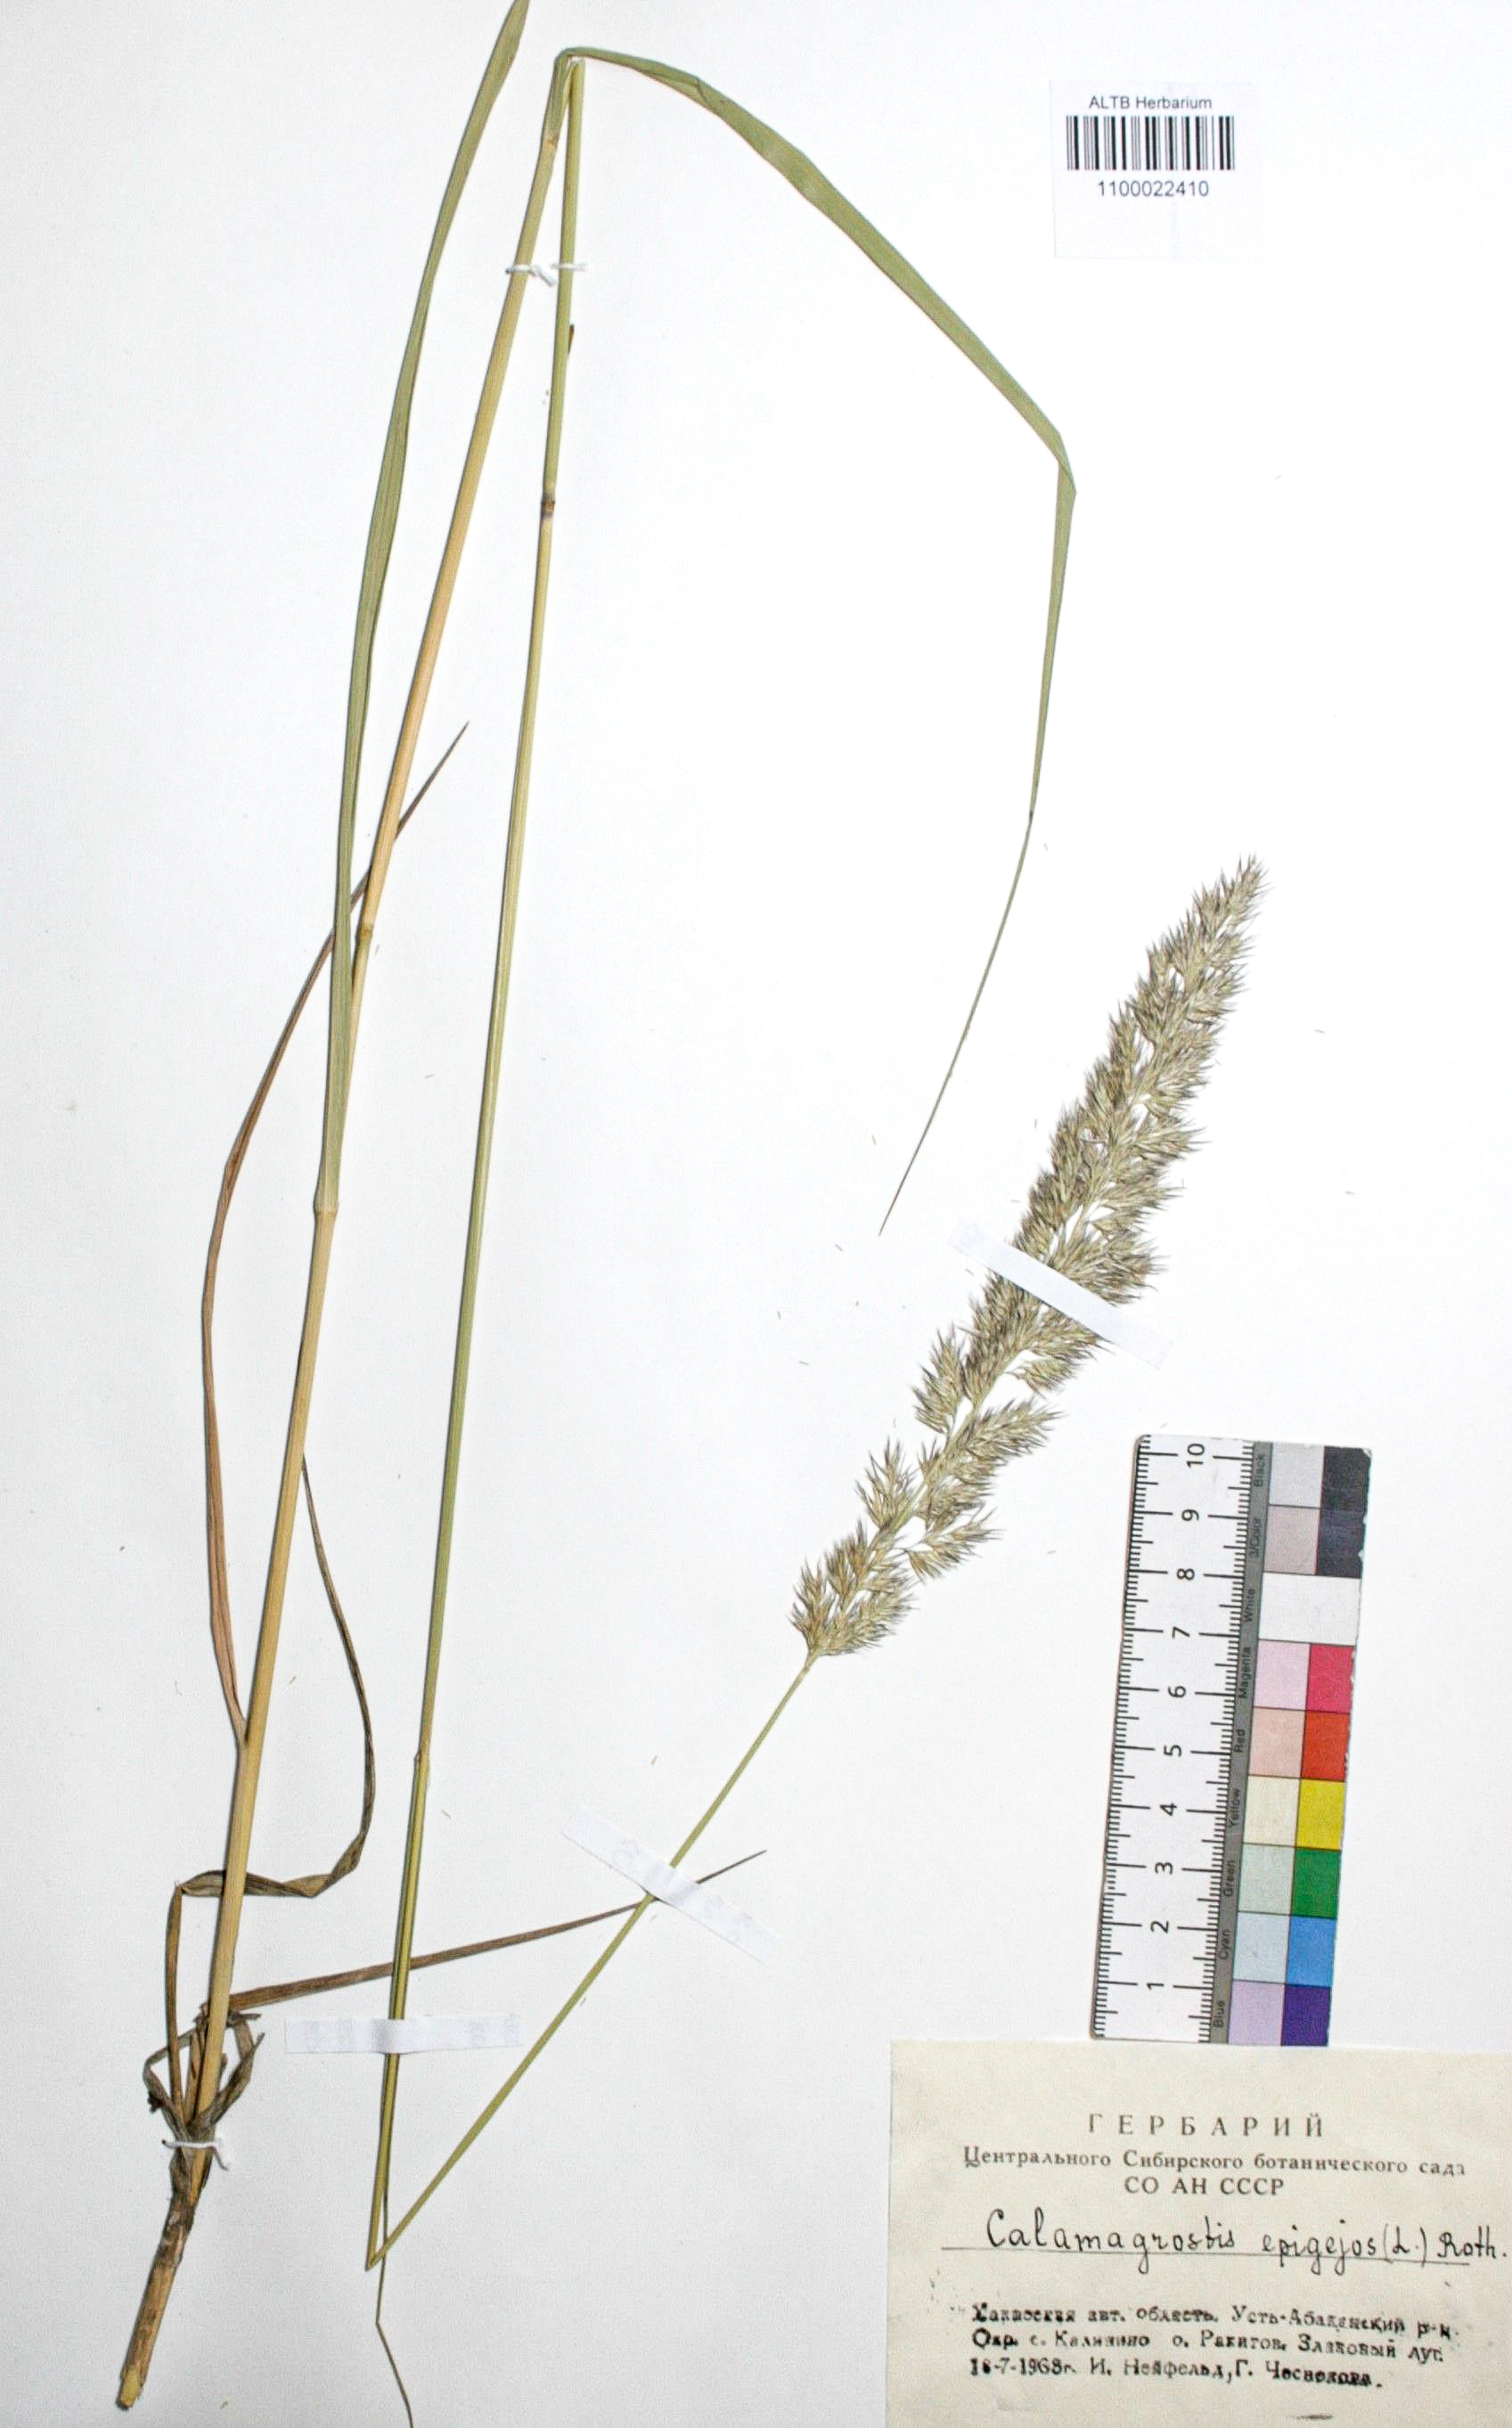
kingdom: Plantae
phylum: Tracheophyta
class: Liliopsida
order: Poales
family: Poaceae
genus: Calamagrostis
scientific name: Calamagrostis epigejos
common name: Wood small-reed
